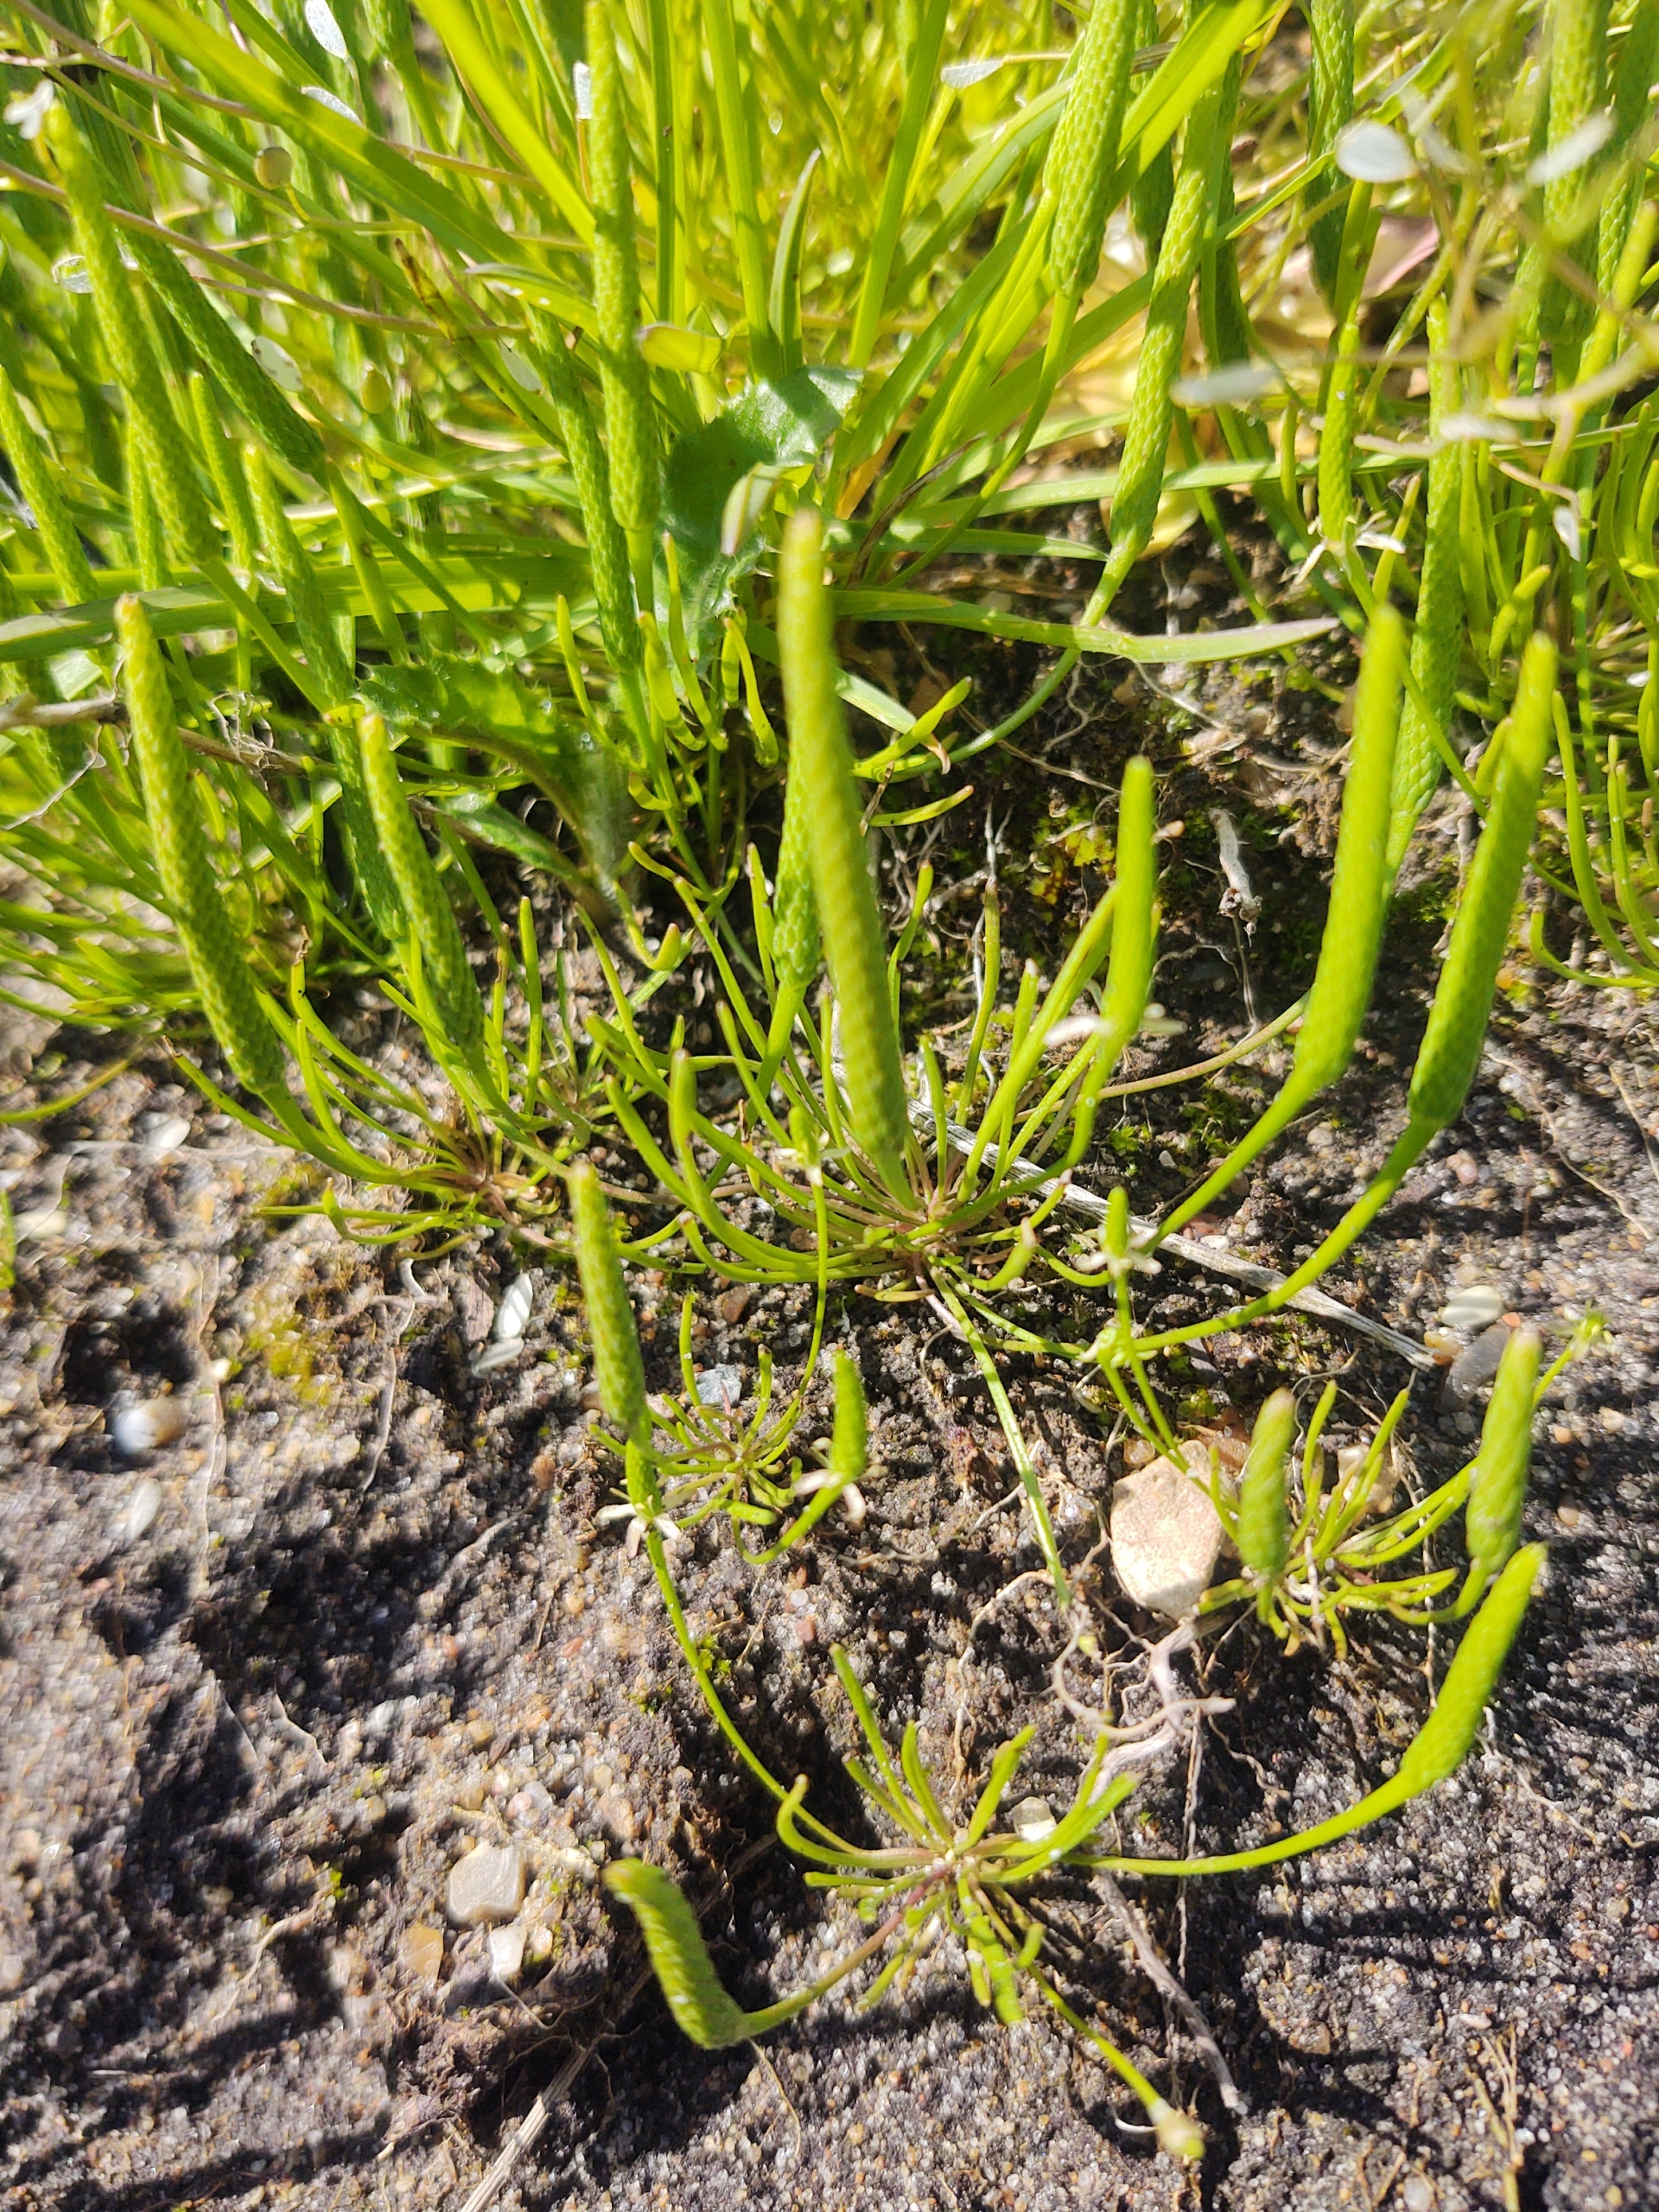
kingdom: Plantae
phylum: Tracheophyta
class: Magnoliopsida
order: Ranunculales
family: Ranunculaceae
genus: Myosurus
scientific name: Myosurus minimus
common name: Musehale
